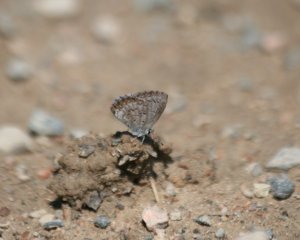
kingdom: Animalia
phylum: Arthropoda
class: Insecta
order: Lepidoptera
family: Lycaenidae
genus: Celastrina
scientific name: Celastrina serotina
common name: Cherry Gall Azure
